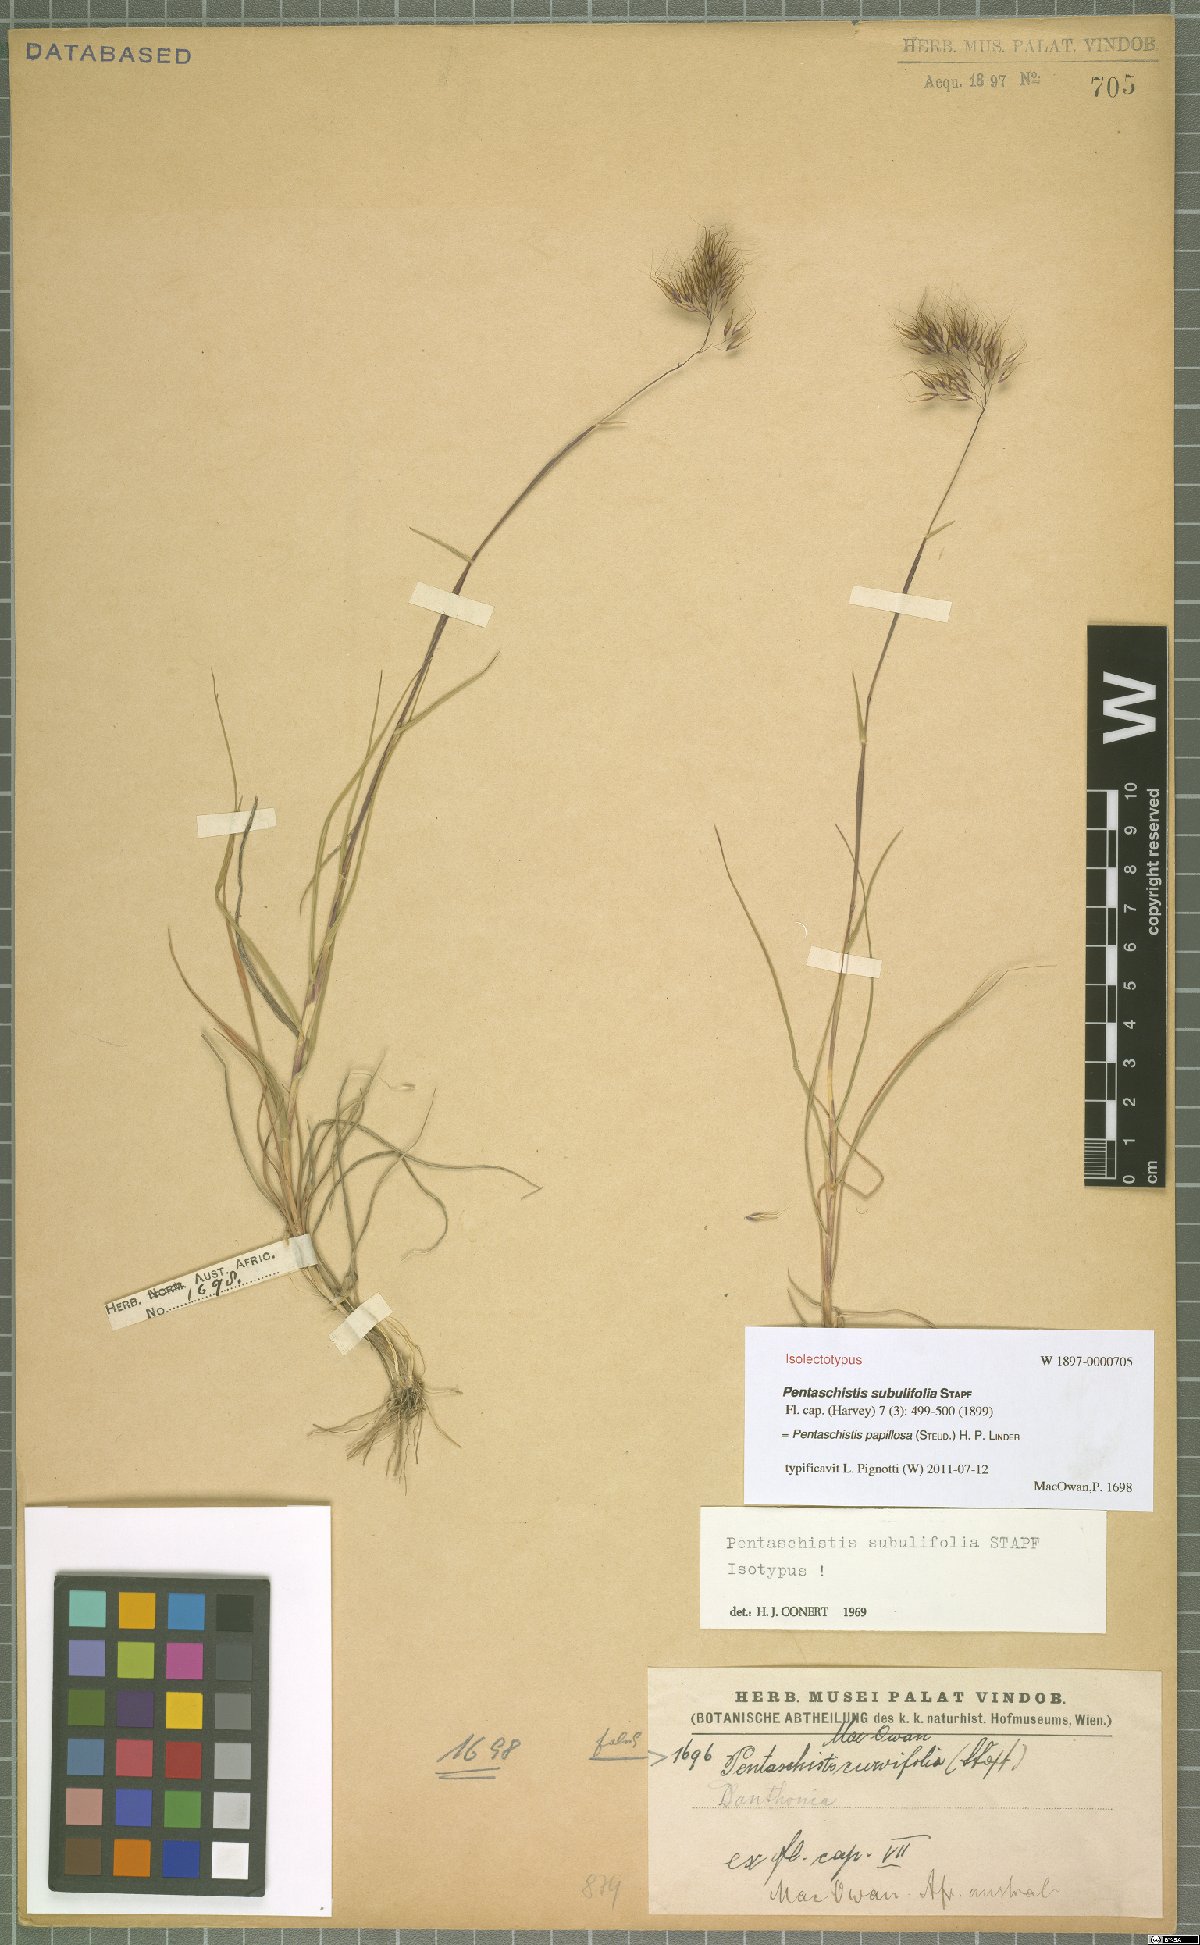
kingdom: Plantae
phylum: Tracheophyta
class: Liliopsida
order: Poales
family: Poaceae
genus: Pentameris
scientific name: Pentameris scabra
